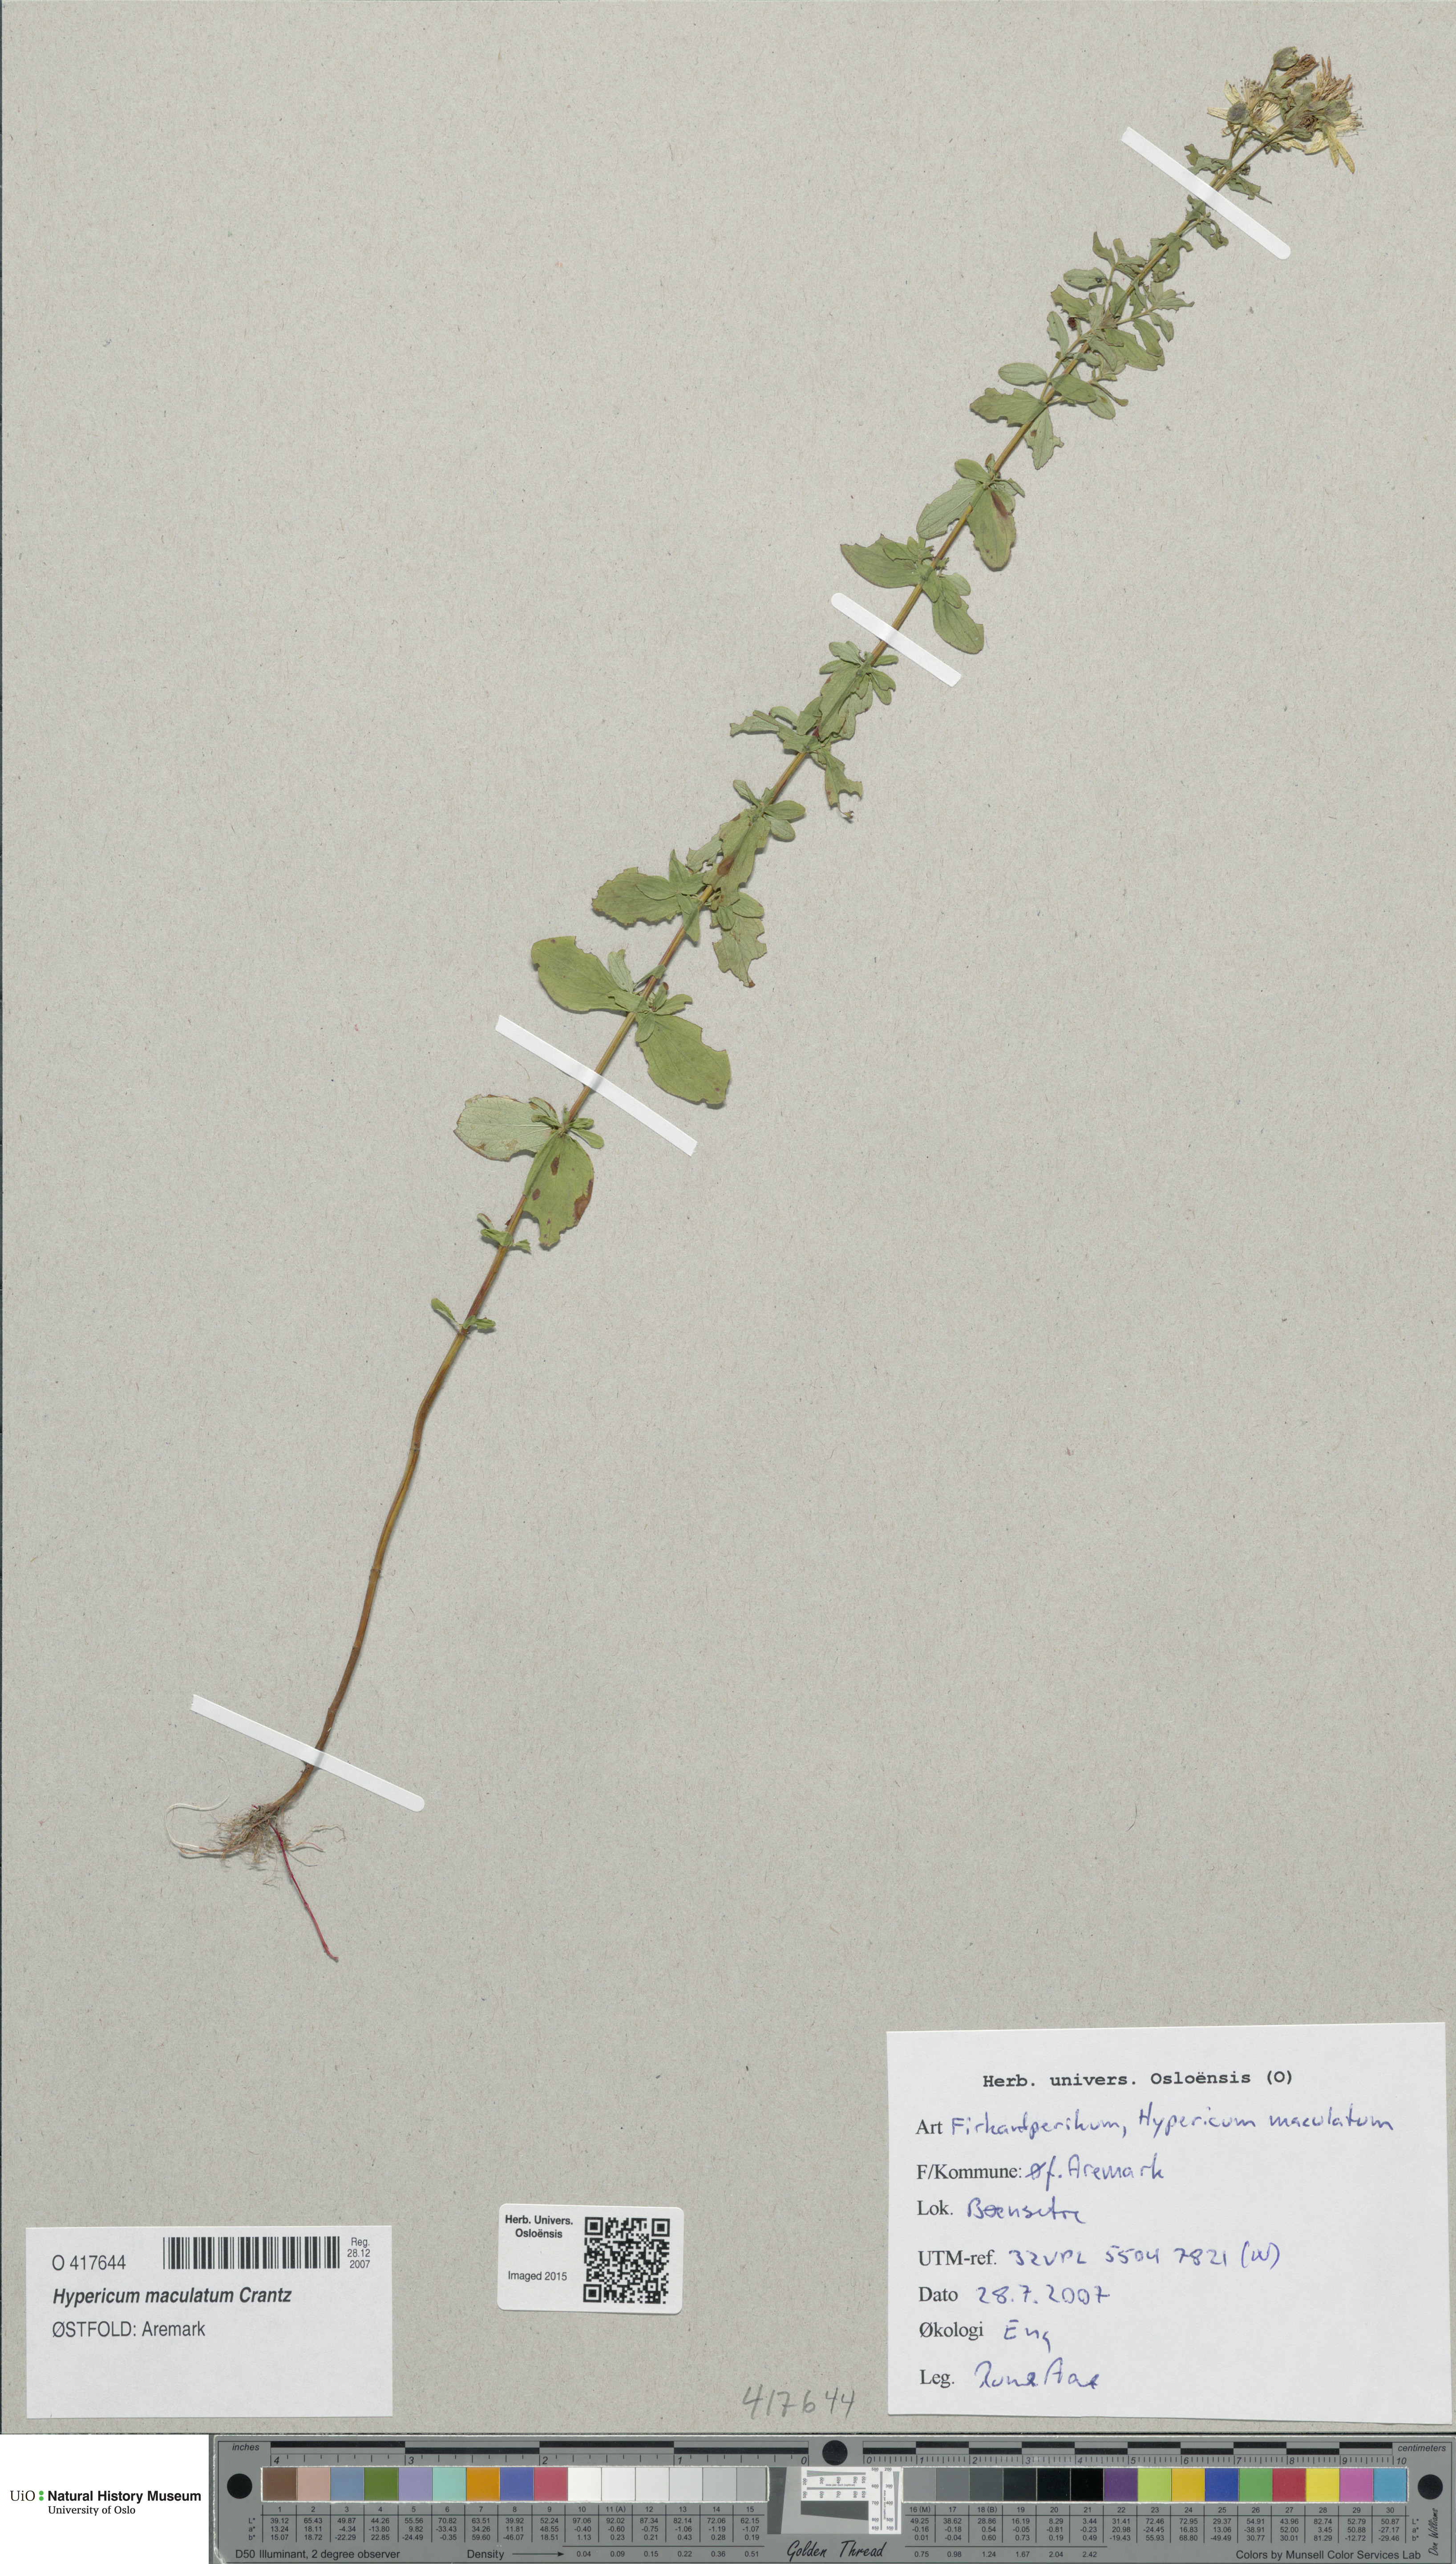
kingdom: Plantae
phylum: Tracheophyta
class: Magnoliopsida
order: Malpighiales
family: Hypericaceae
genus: Hypericum
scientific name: Hypericum maculatum
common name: Imperforate st. john's-wort
